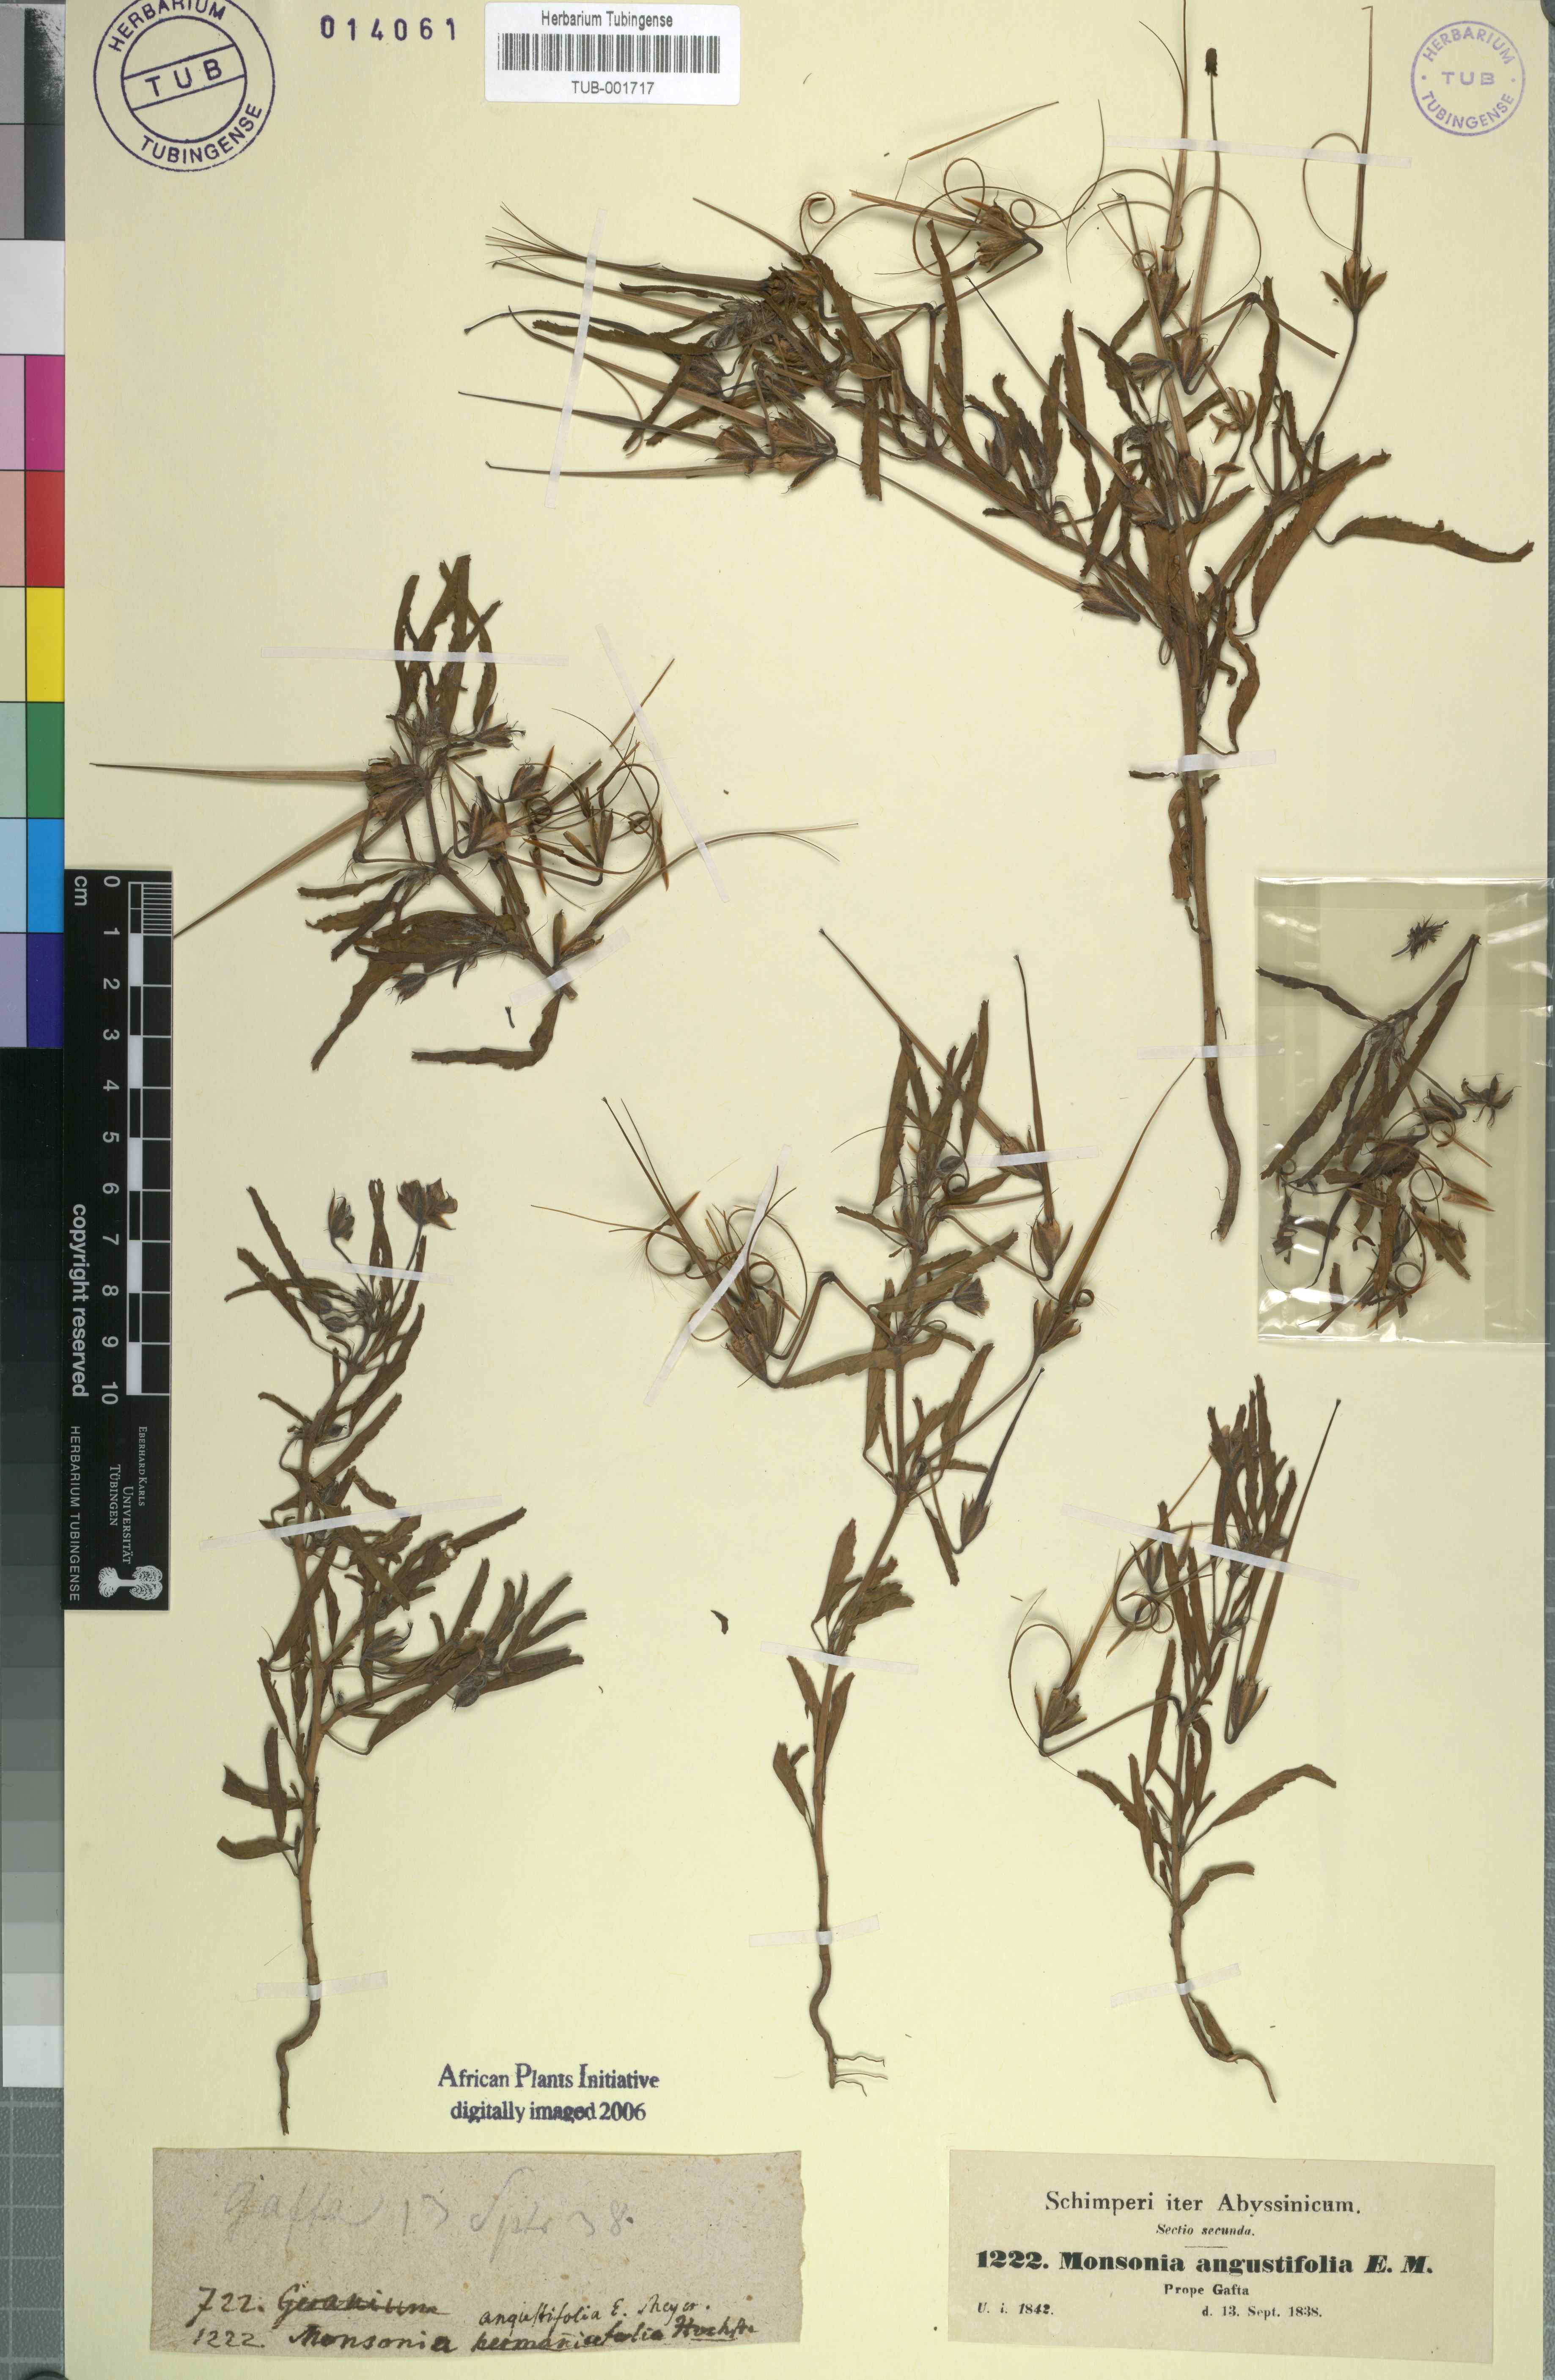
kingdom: Plantae
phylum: Tracheophyta
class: Magnoliopsida
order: Geraniales
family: Geraniaceae
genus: Monsonia
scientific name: Monsonia biflora
